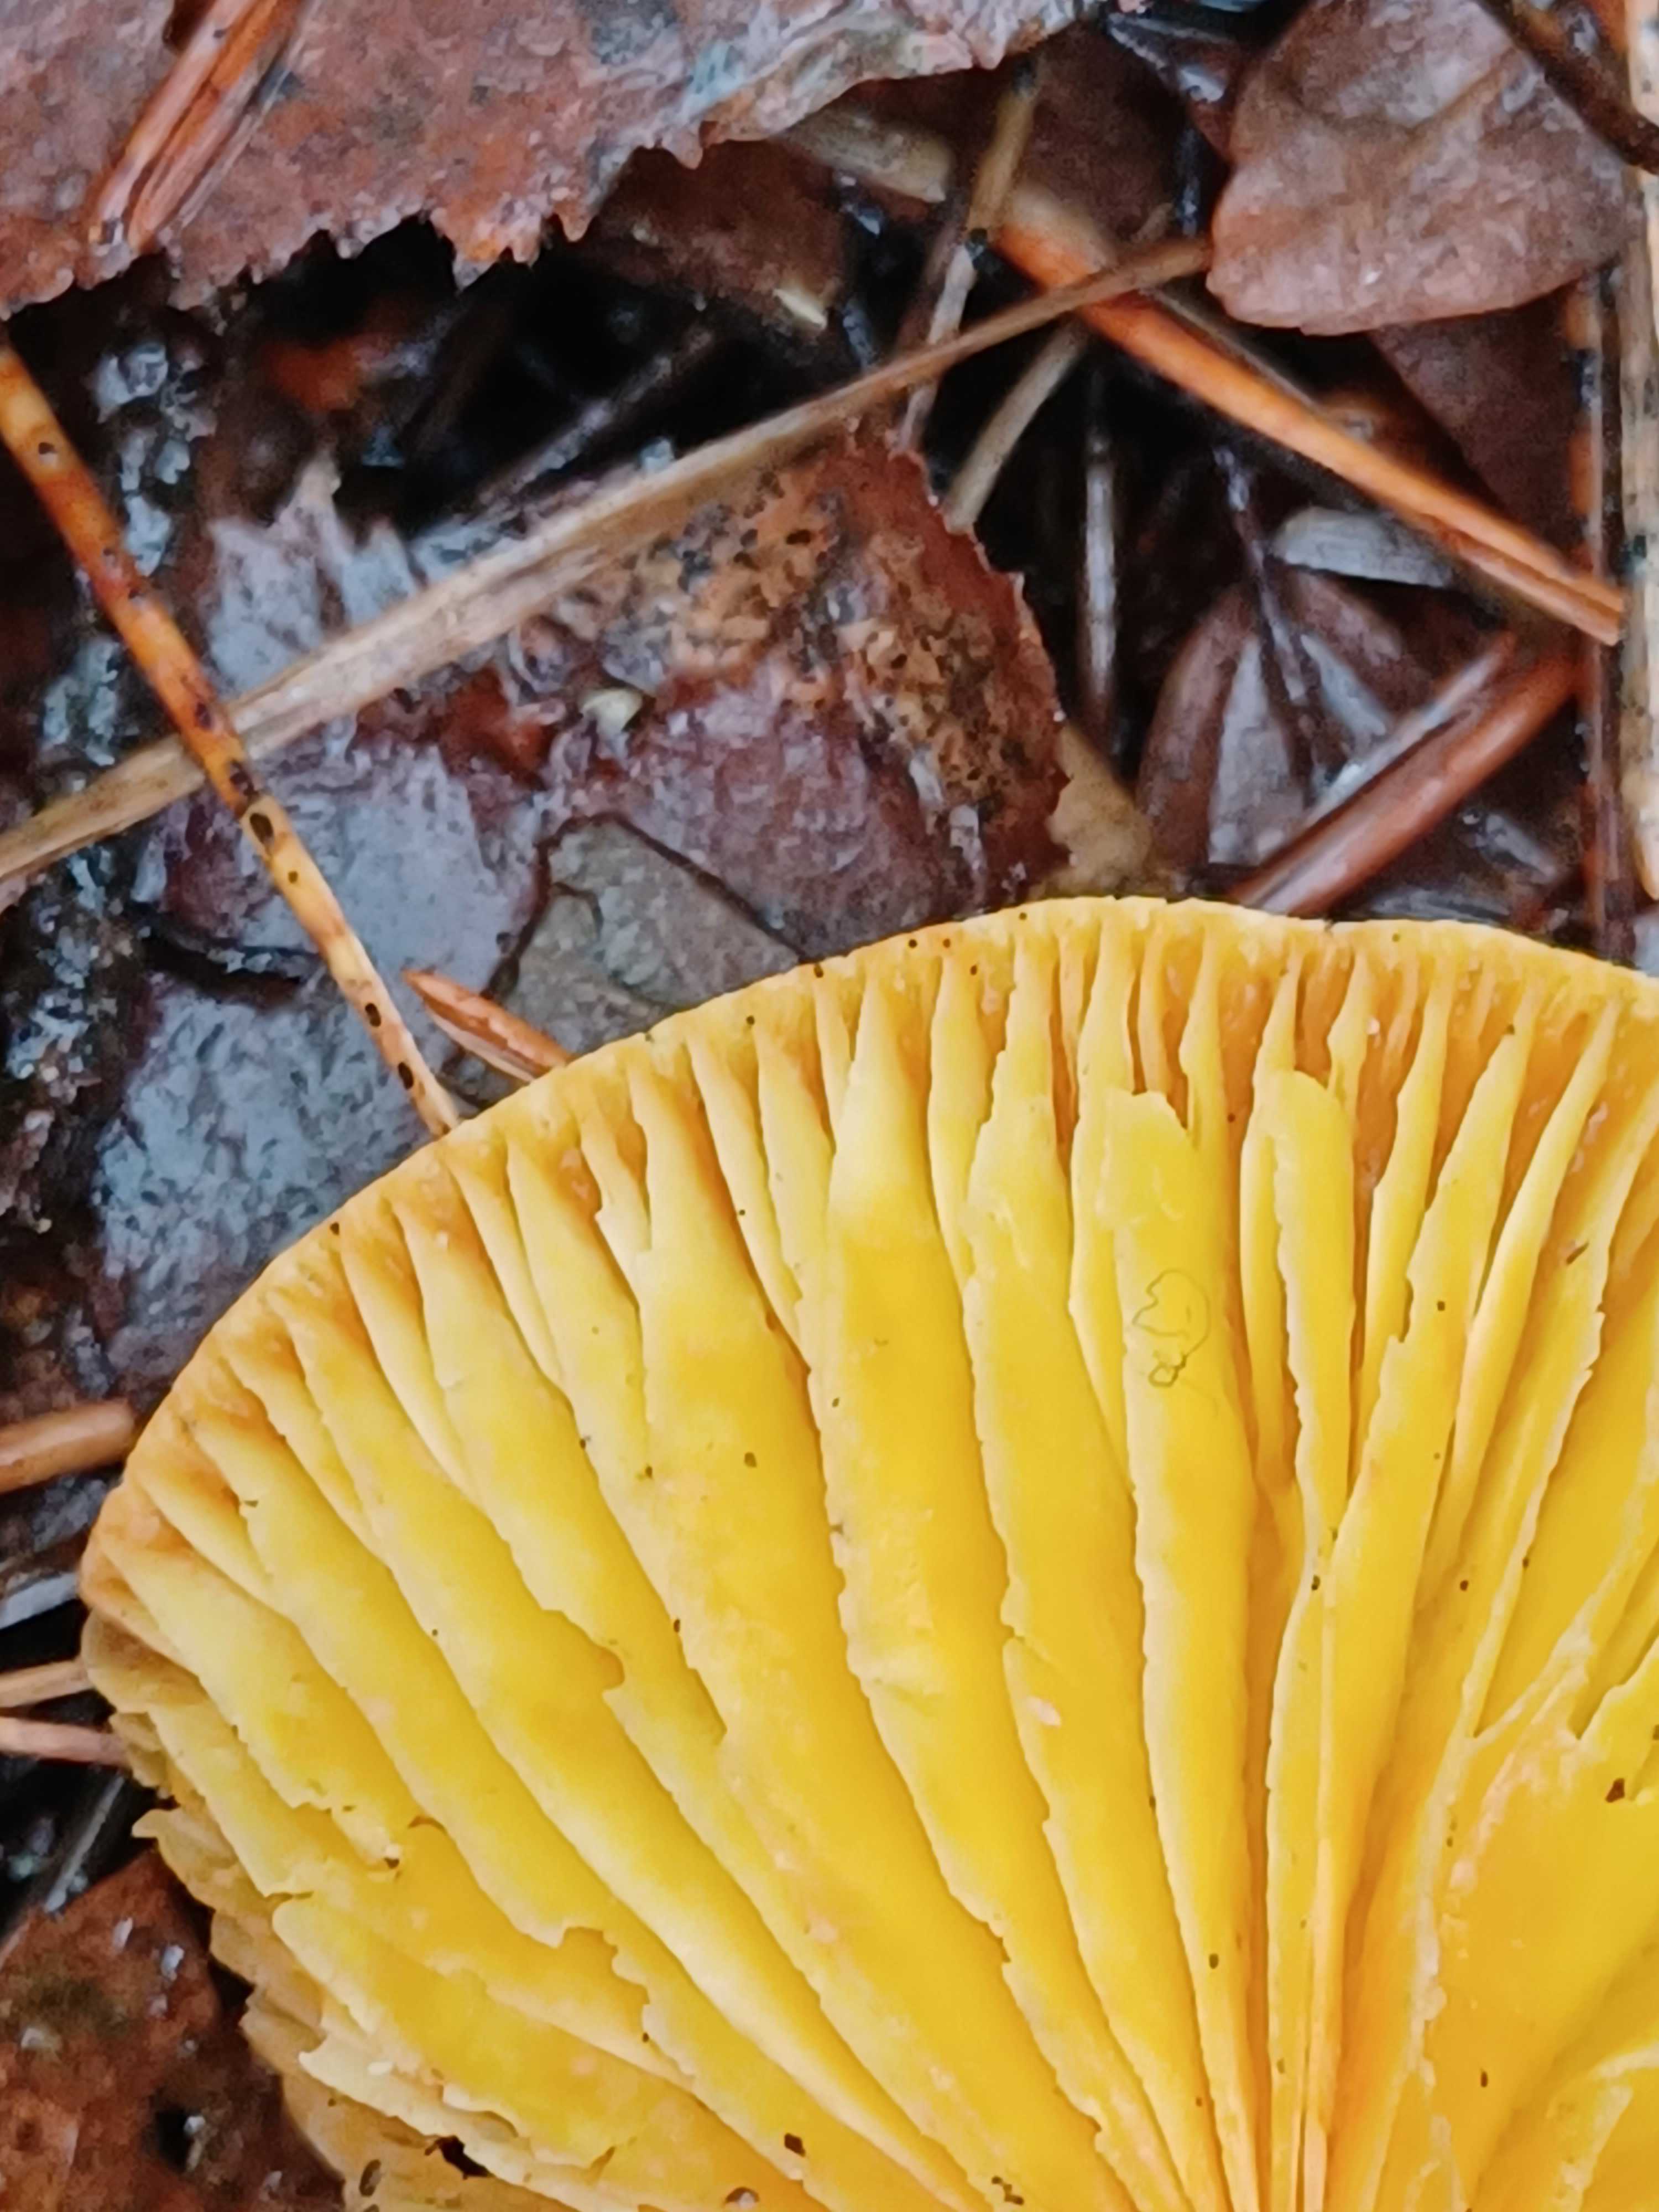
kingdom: Fungi
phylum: Basidiomycota
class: Agaricomycetes
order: Agaricales
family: Hygrophoraceae
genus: Hygrophorus
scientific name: Hygrophorus hypothejus
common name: frost-sneglehat
